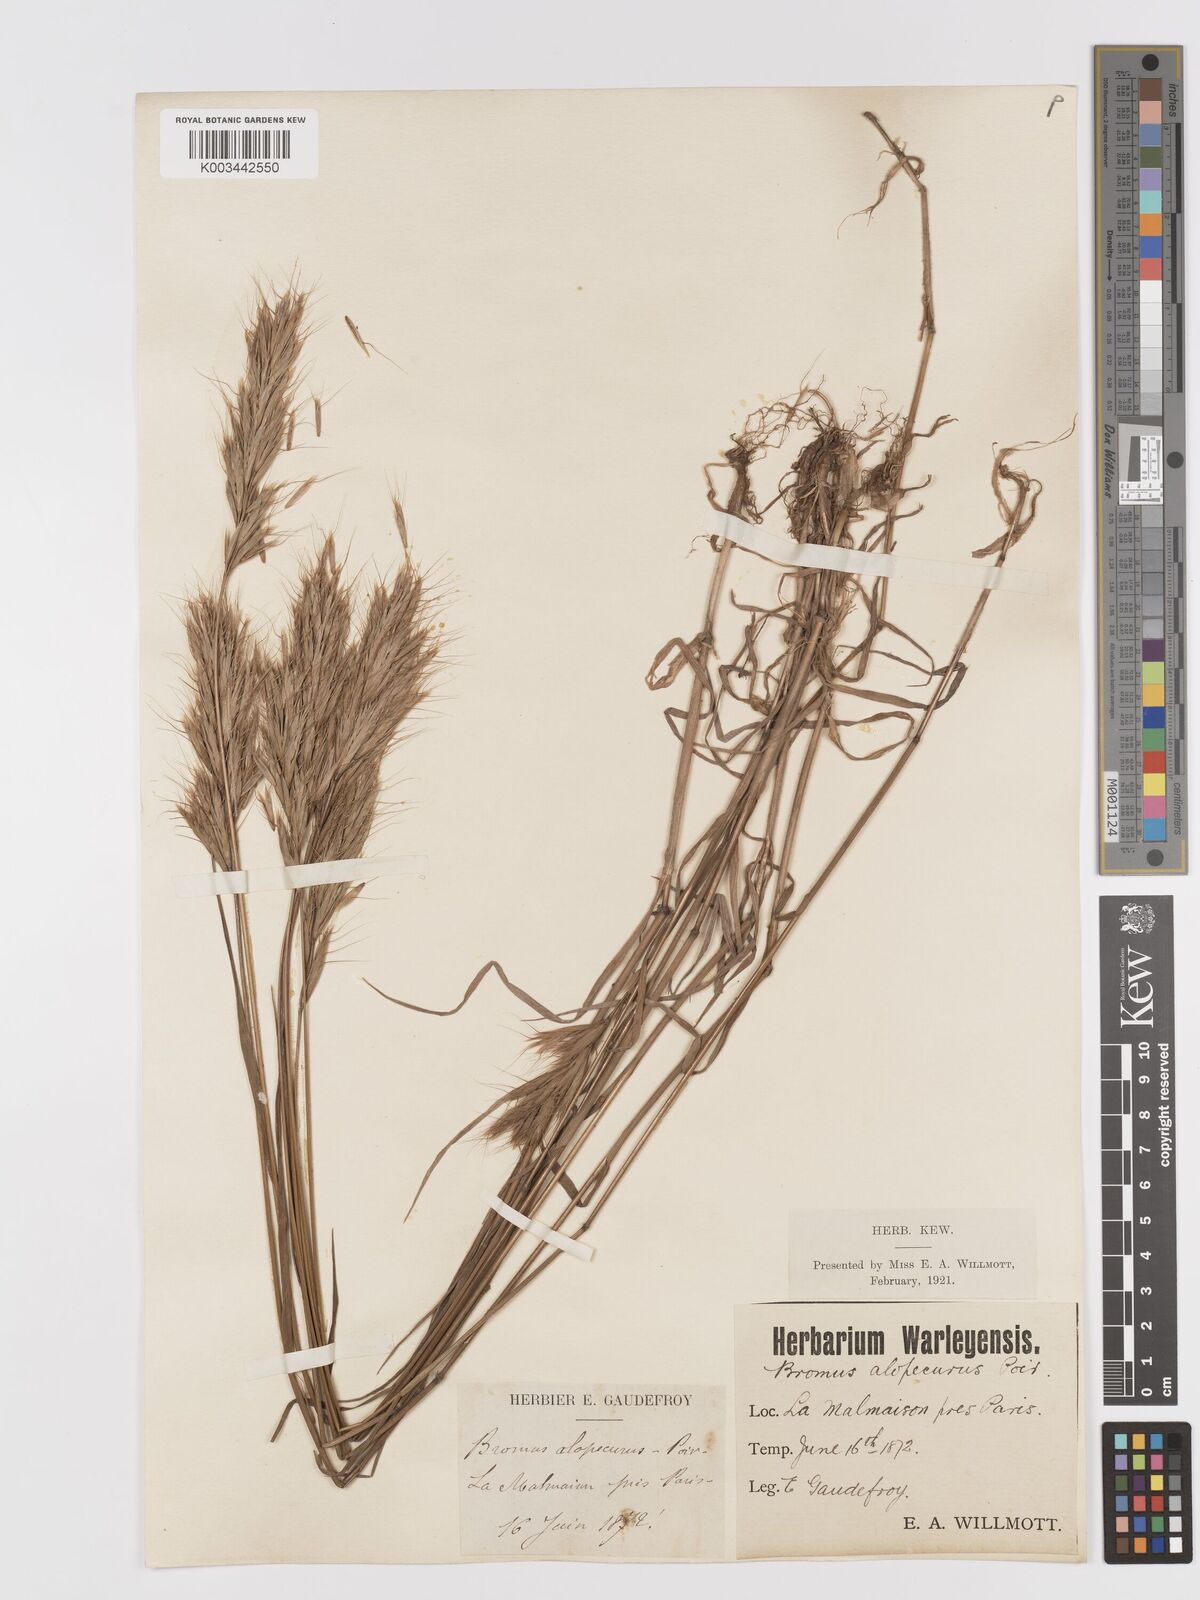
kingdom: Plantae
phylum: Tracheophyta
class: Liliopsida
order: Poales
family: Poaceae
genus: Bromus
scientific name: Bromus alopecuros
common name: Weedy brome
